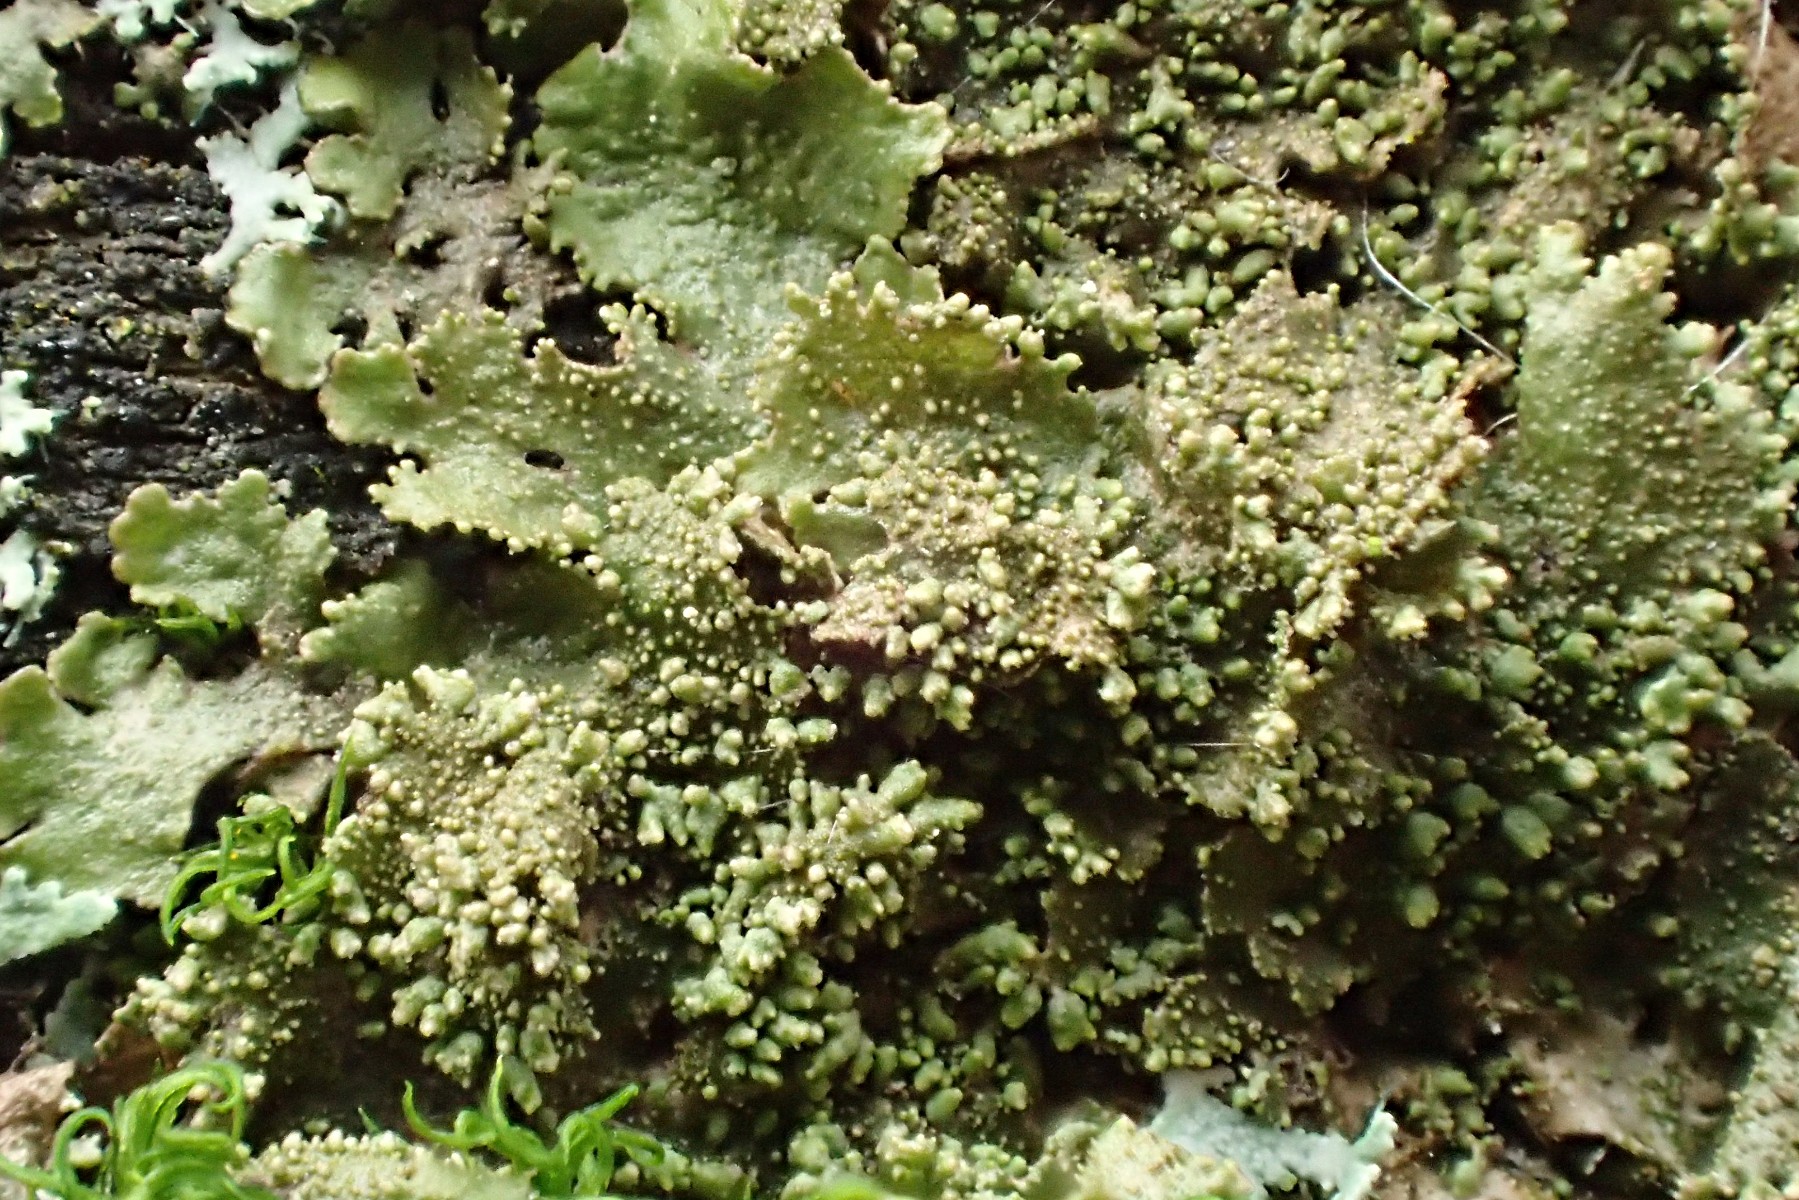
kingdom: Fungi
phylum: Ascomycota
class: Lecanoromycetes
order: Lecanorales
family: Parmeliaceae
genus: Melanohalea
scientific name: Melanohalea exasperatula
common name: kølle-skållav
